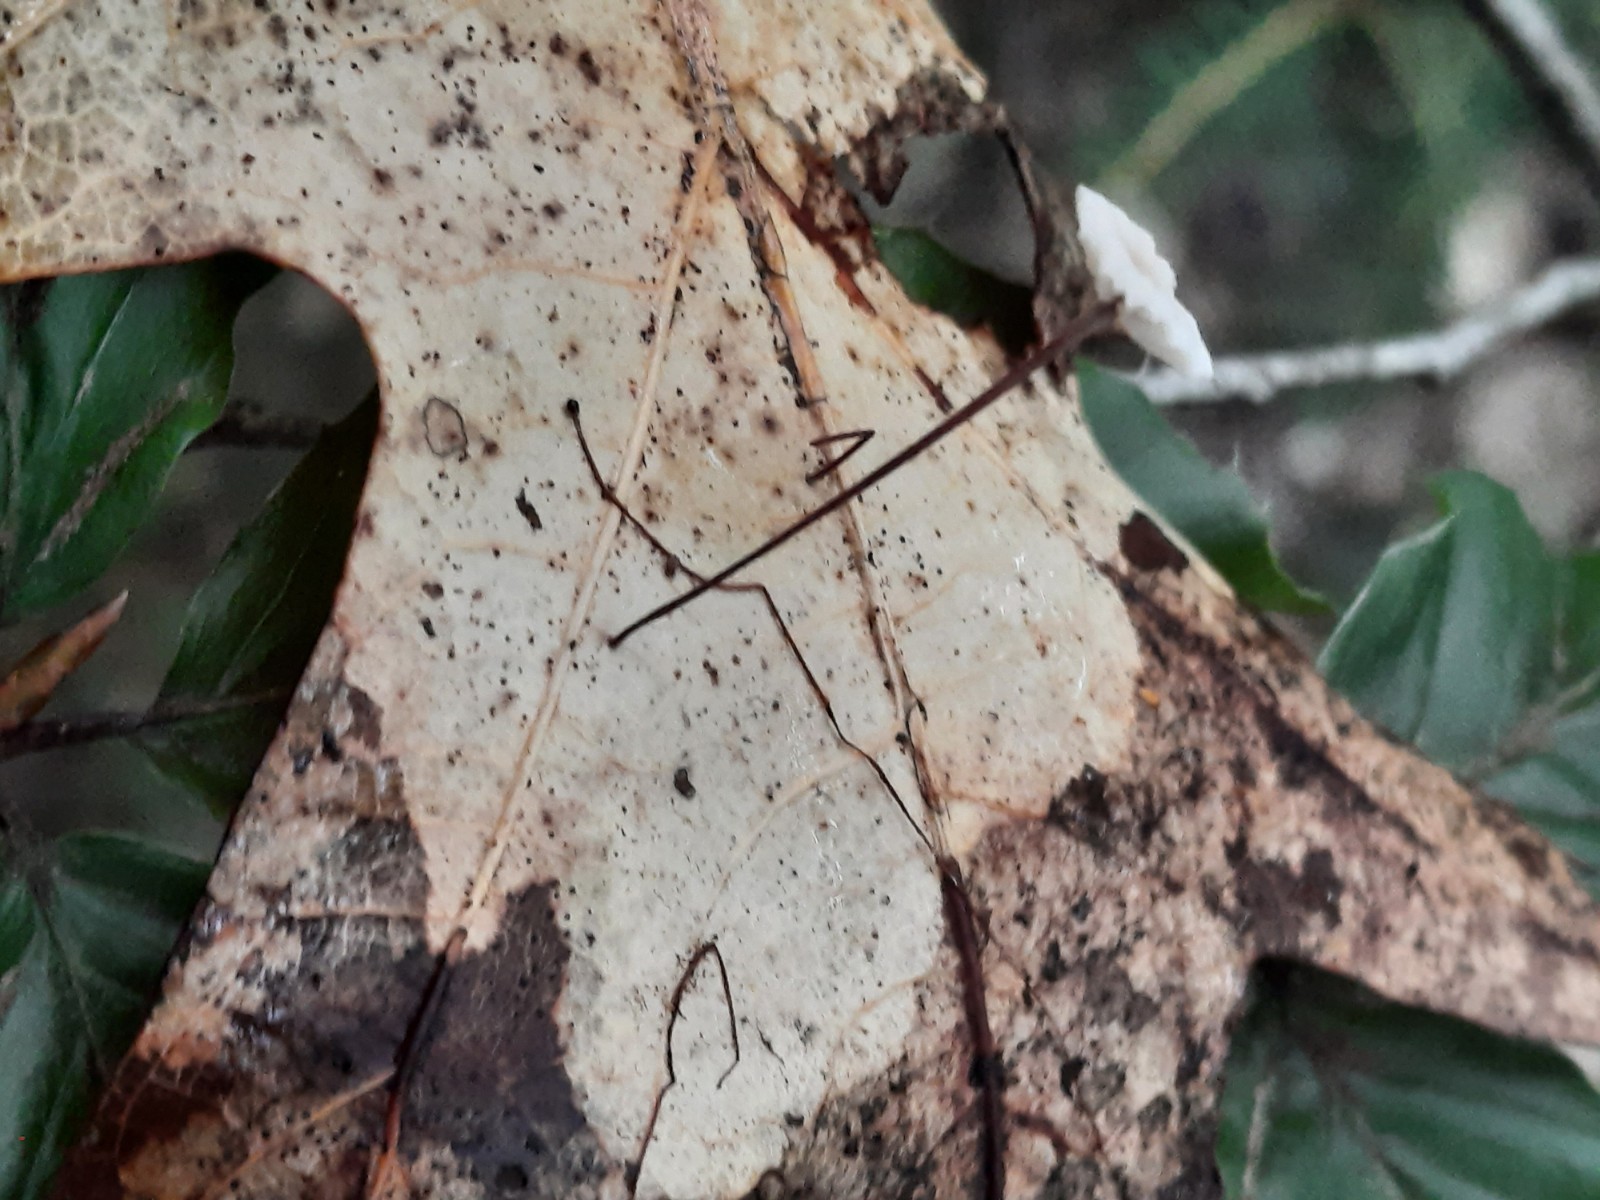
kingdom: Fungi
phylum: Basidiomycota
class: Agaricomycetes
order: Agaricales
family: Omphalotaceae
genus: Collybiopsis
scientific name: Collybiopsis quercophila
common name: egeblads-bruskhat
